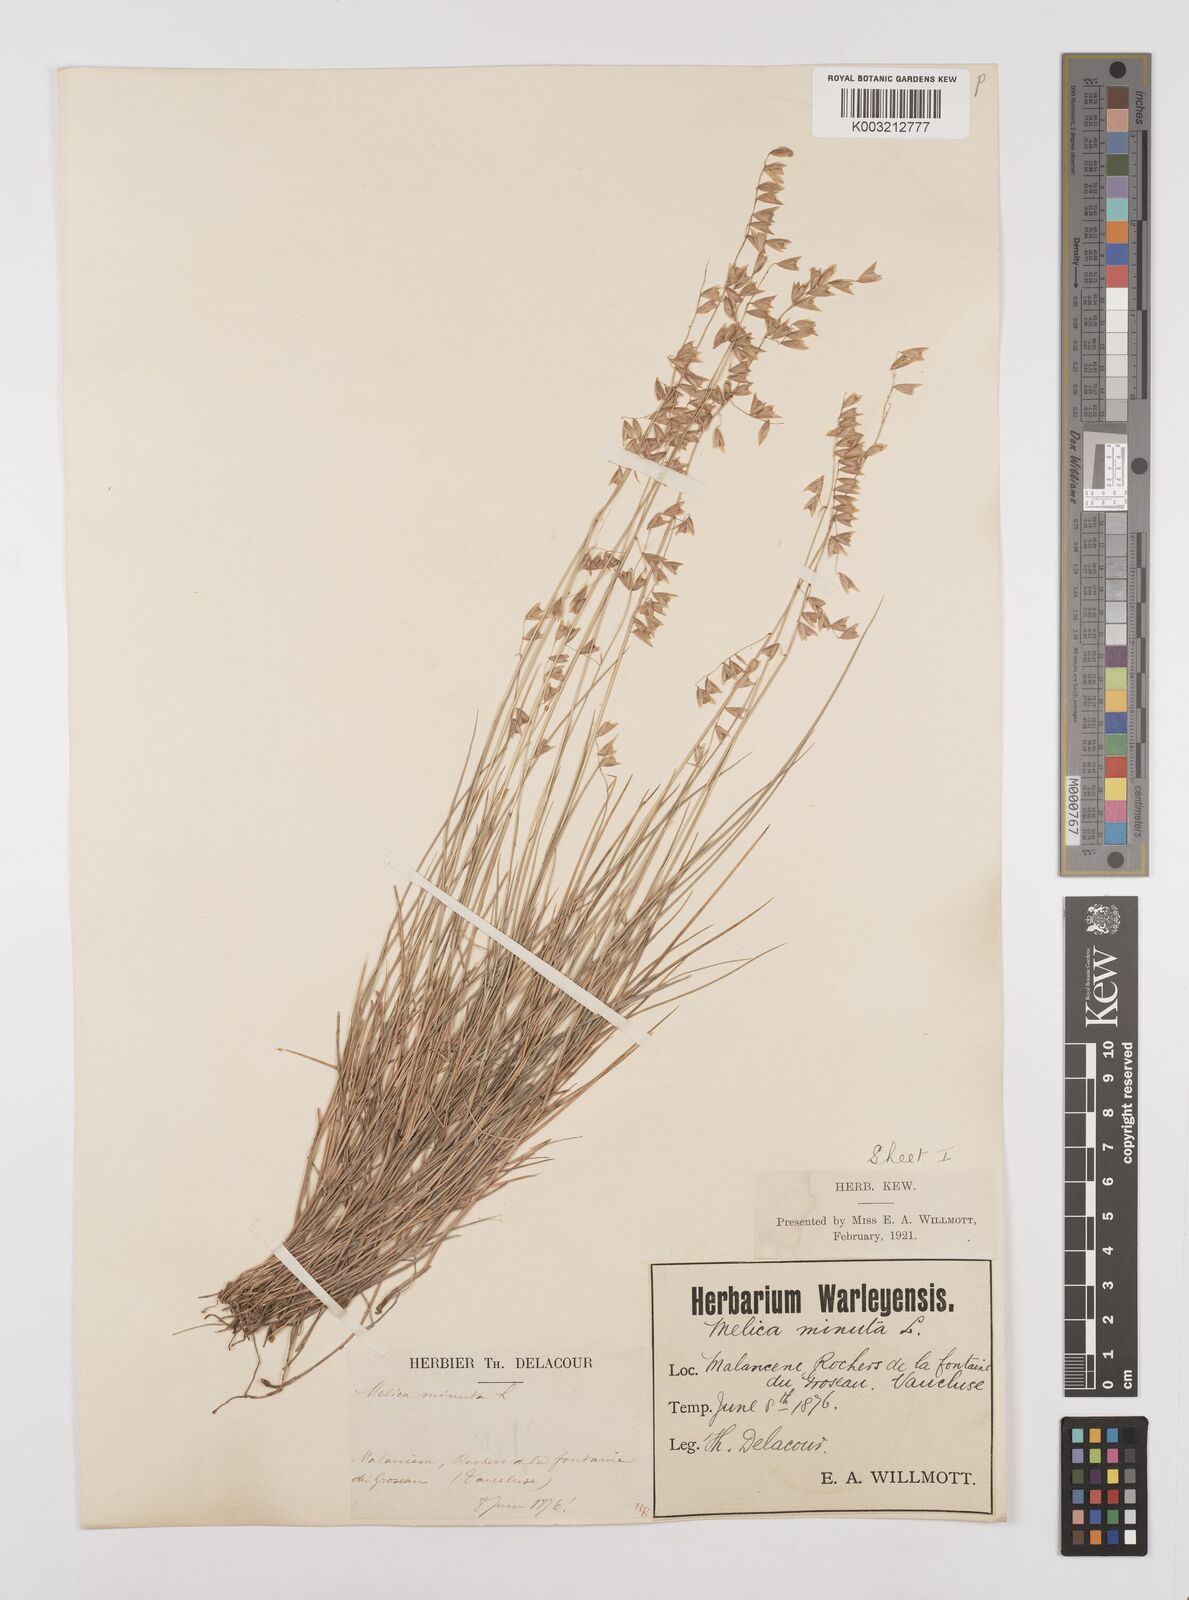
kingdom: Plantae
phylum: Tracheophyta
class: Liliopsida
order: Poales
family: Poaceae
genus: Melica
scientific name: Melica minuta
